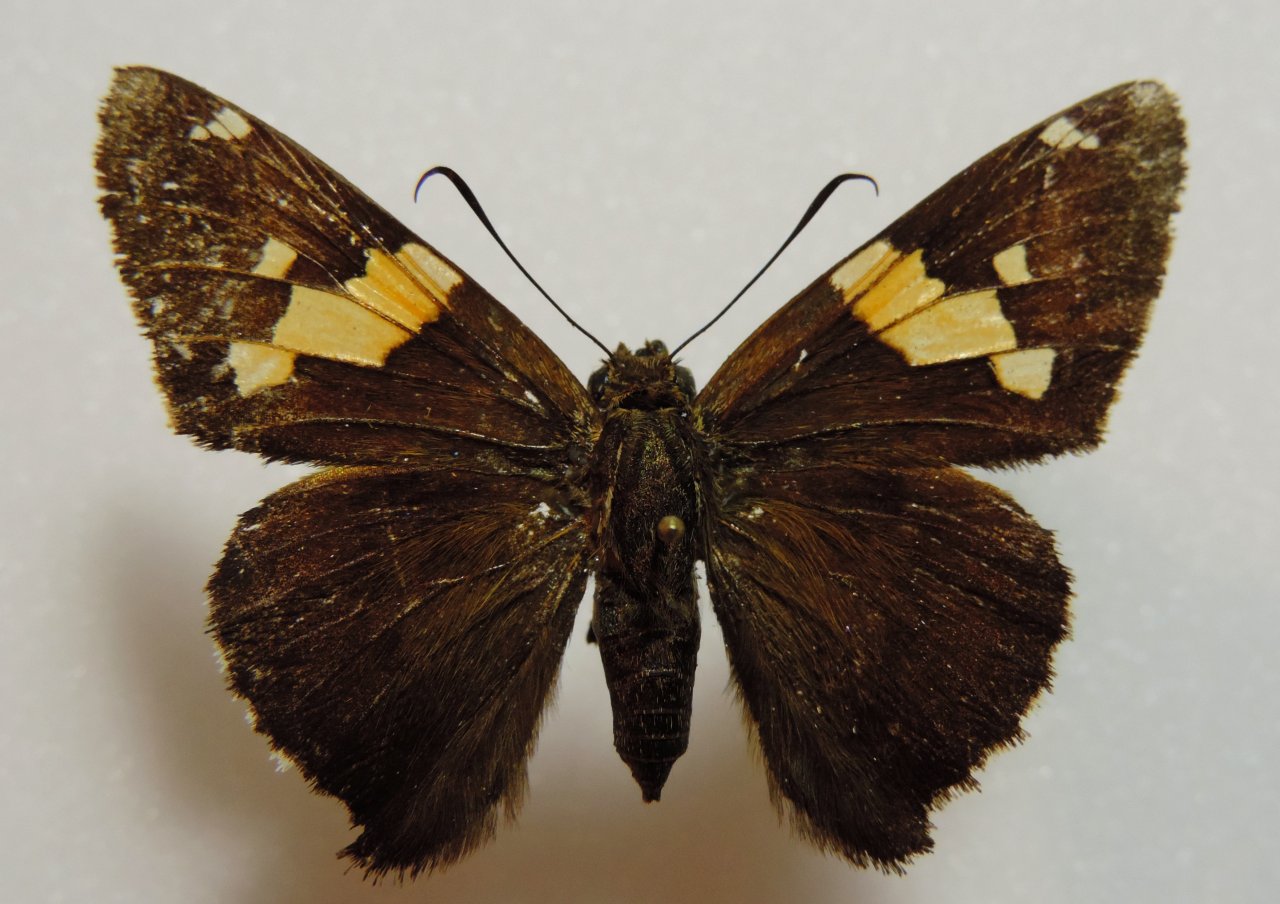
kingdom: Animalia
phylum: Arthropoda
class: Insecta
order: Lepidoptera
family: Hesperiidae
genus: Epargyreus
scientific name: Epargyreus clarus
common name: Silver-spotted Skipper
